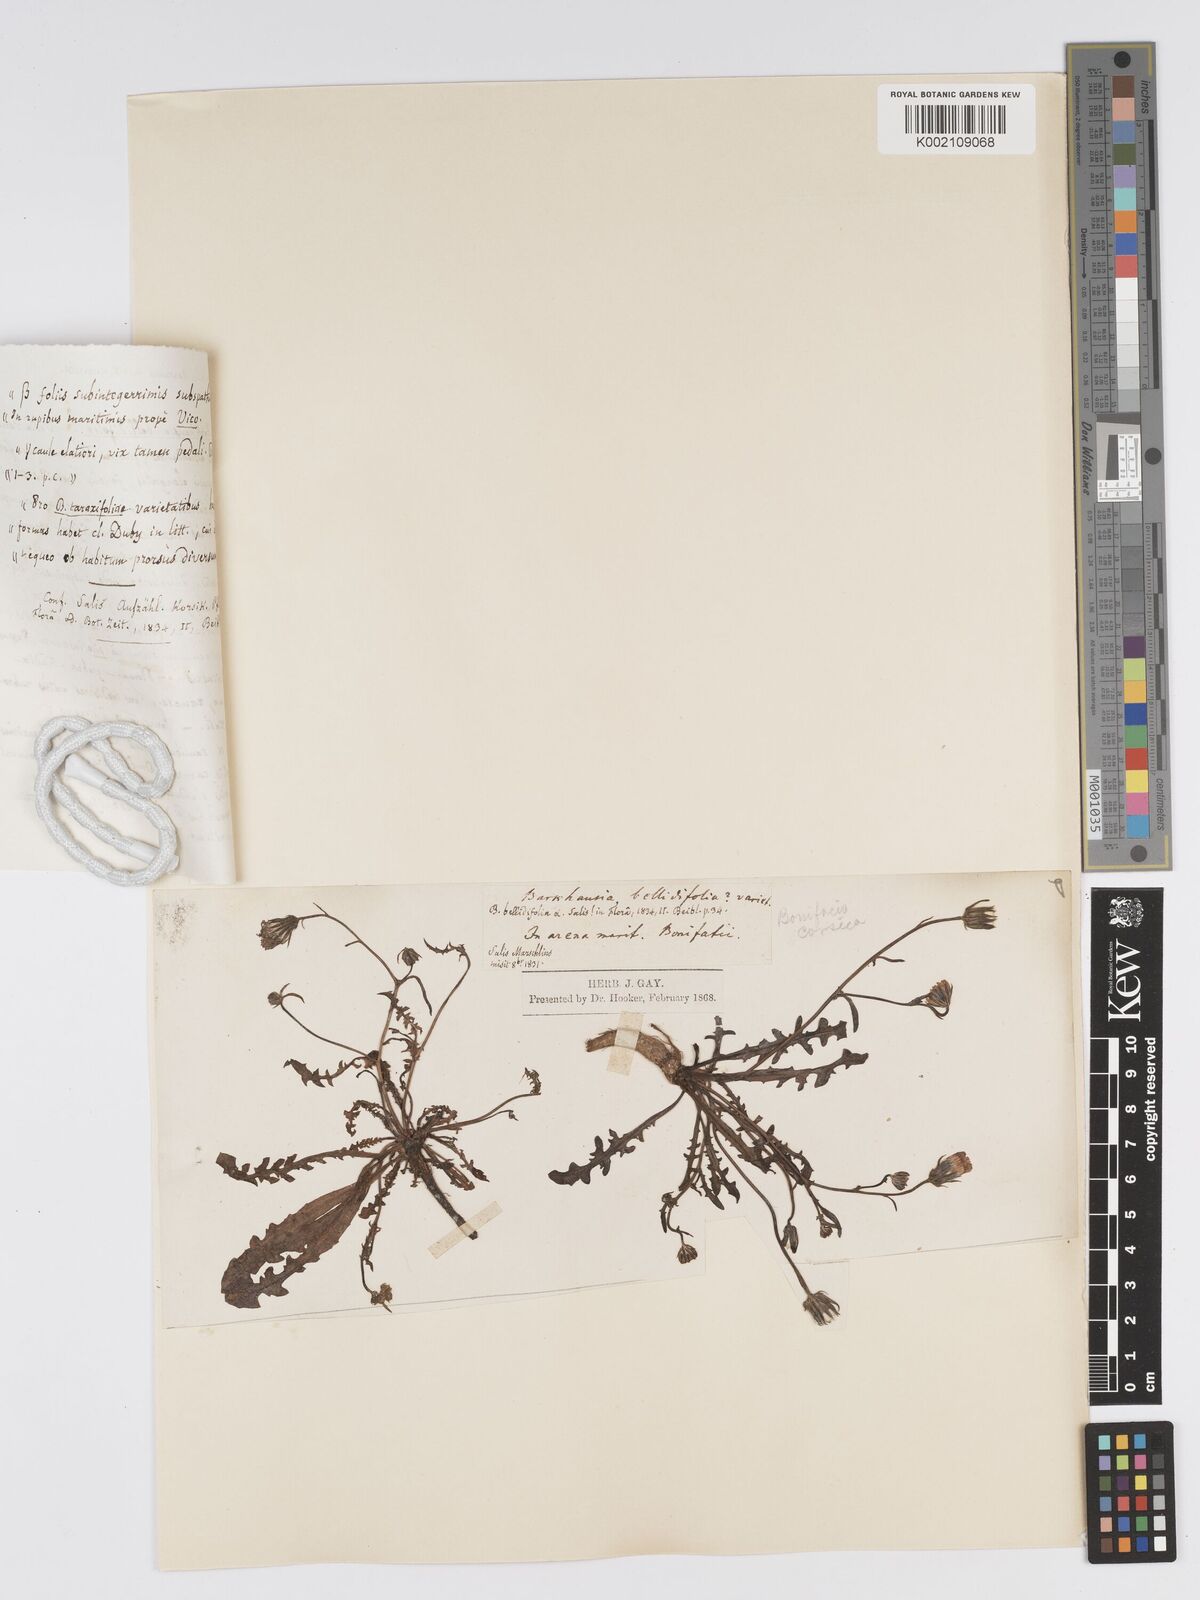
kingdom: Plantae
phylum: Tracheophyta
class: Magnoliopsida
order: Asterales
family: Asteraceae
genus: Crepis
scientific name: Crepis bellidifolia
